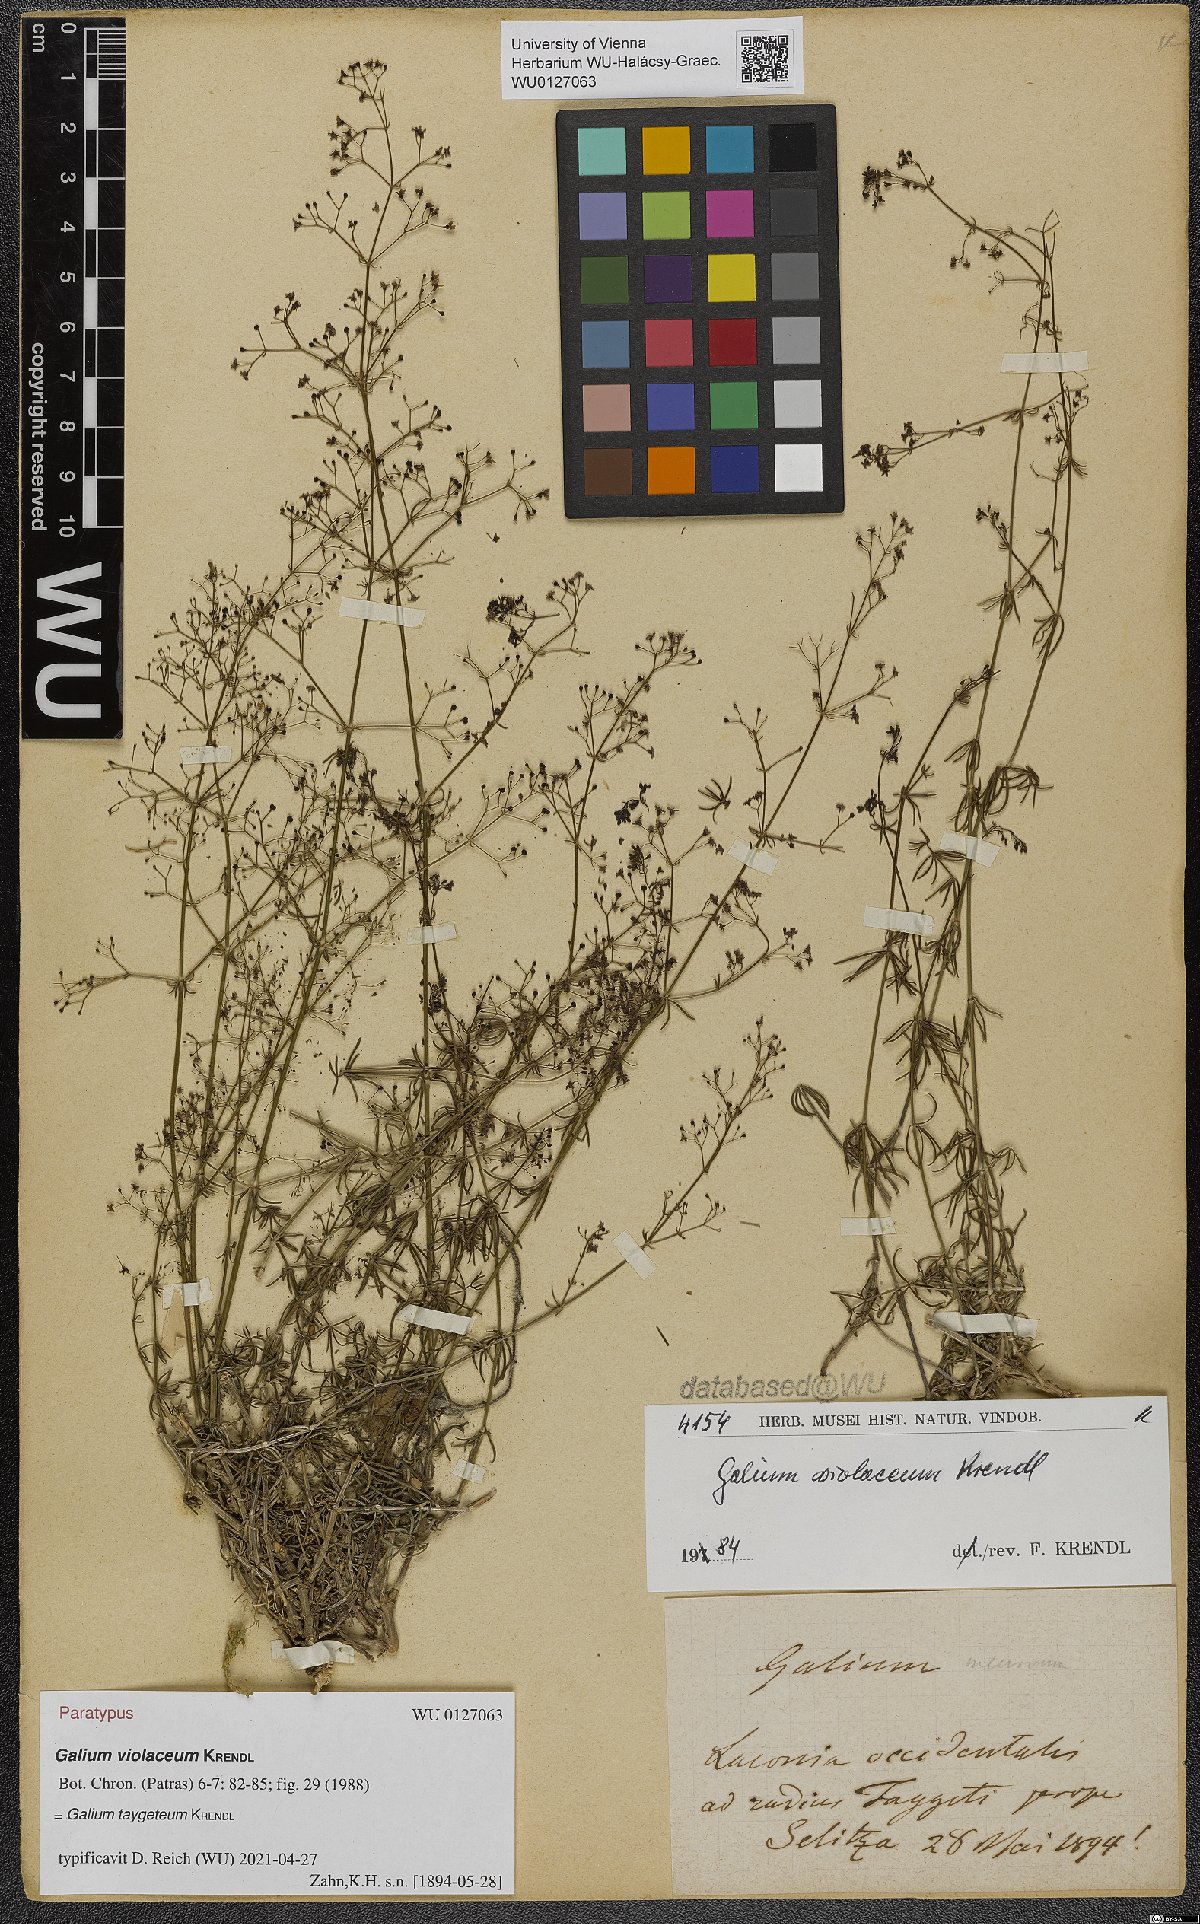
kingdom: Plantae
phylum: Tracheophyta
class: Magnoliopsida
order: Gentianales
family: Rubiaceae
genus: Galium
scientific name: Galium taygeteum
